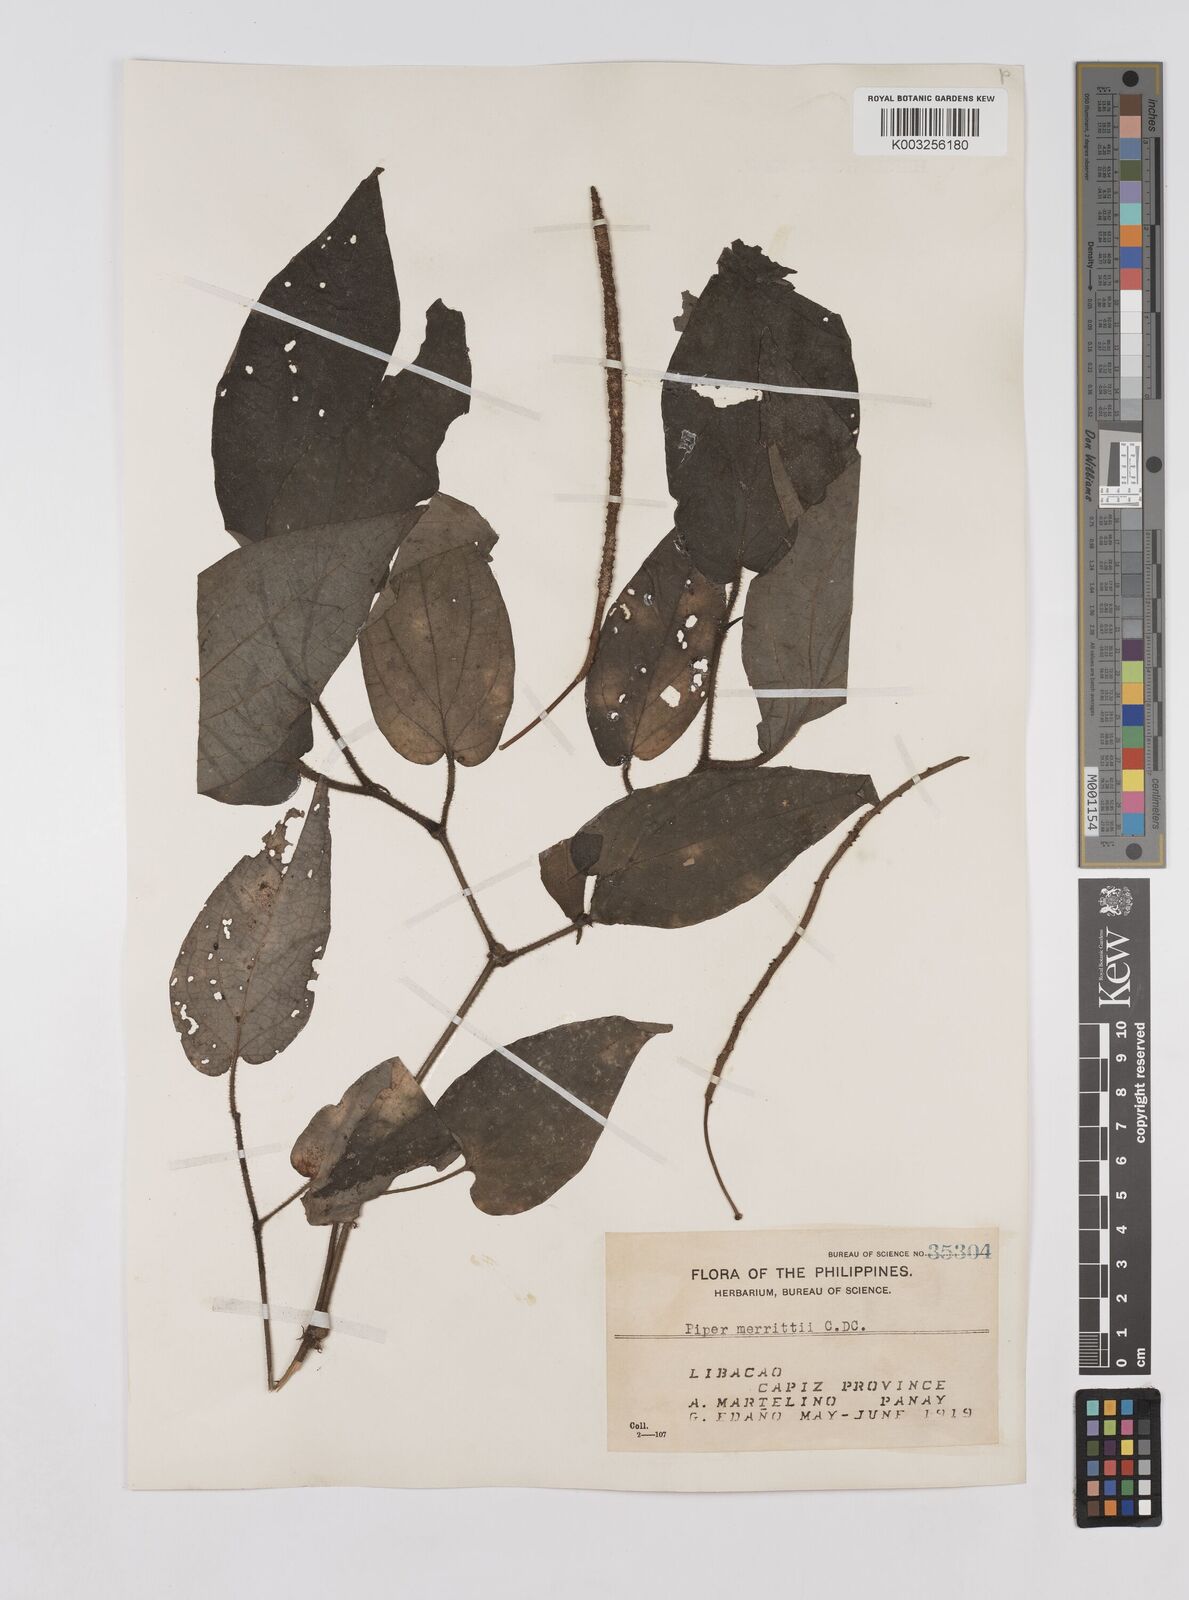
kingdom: Plantae
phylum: Tracheophyta
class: Magnoliopsida
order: Piperales
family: Piperaceae
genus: Piper
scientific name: Piper lanatum
